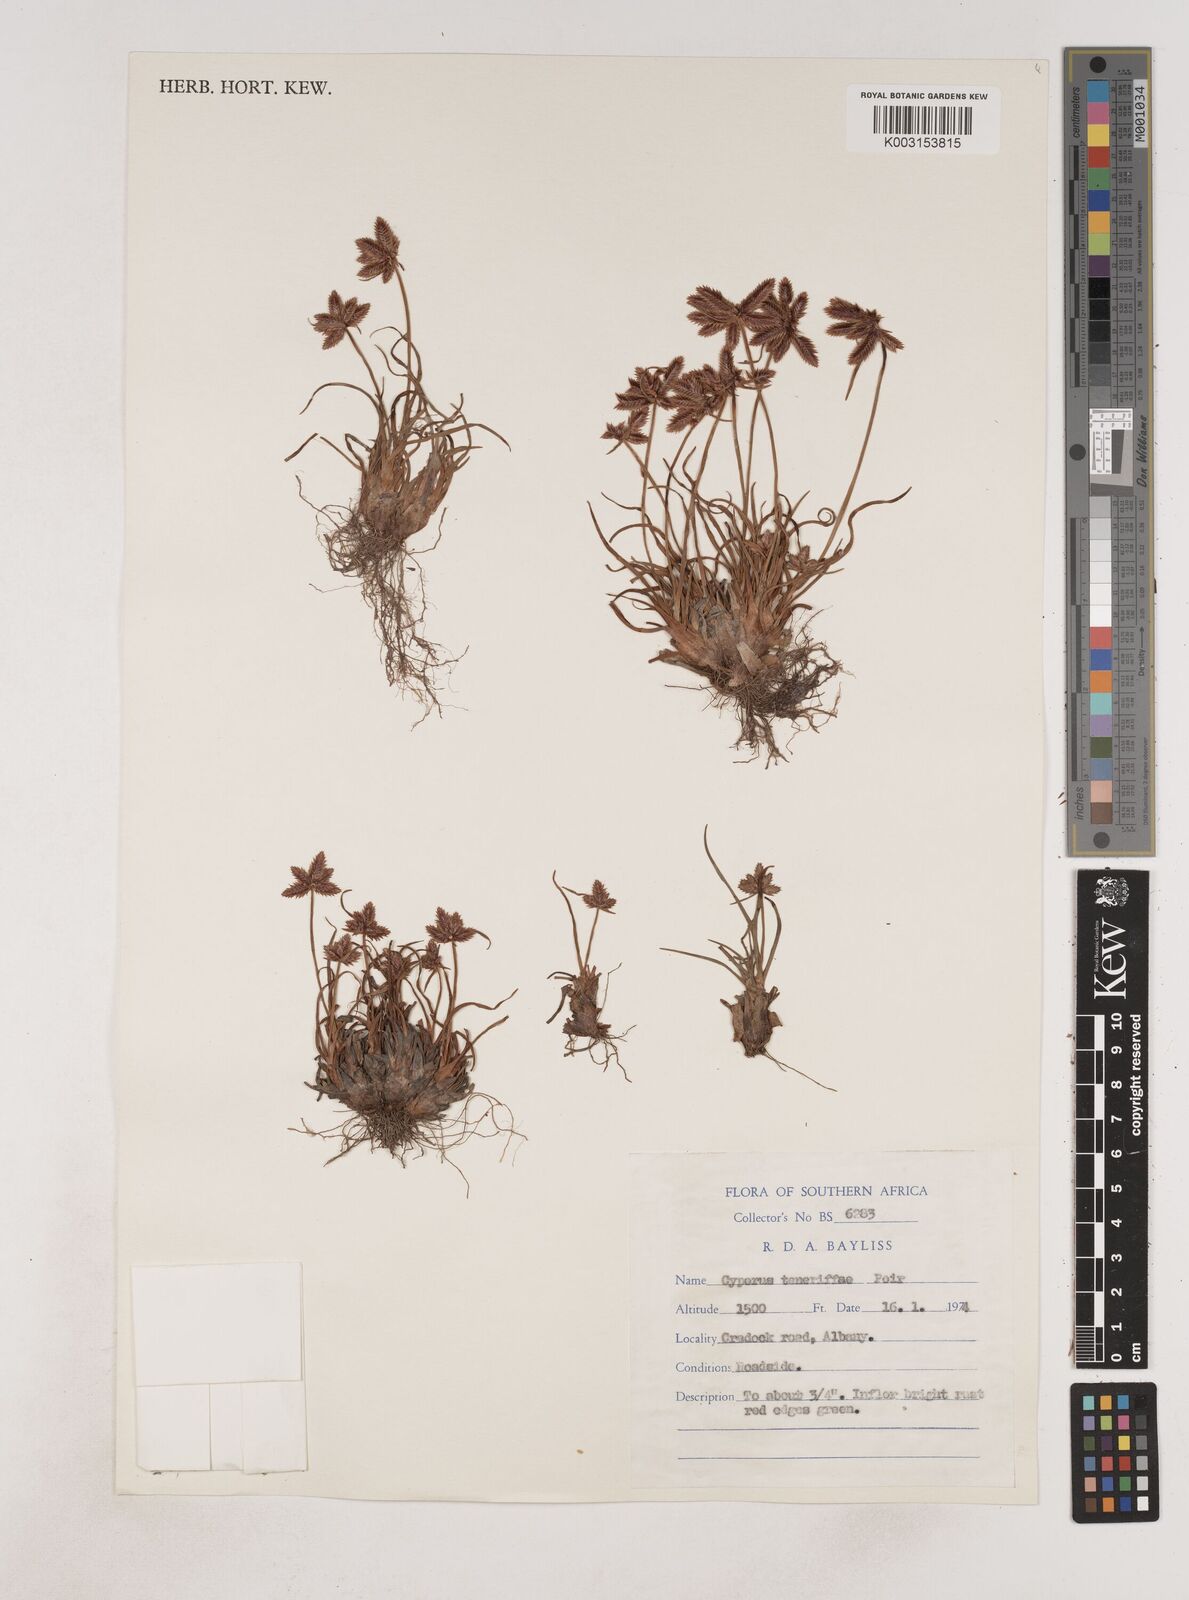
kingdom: Plantae
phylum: Tracheophyta
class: Liliopsida
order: Poales
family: Cyperaceae
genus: Cyperus
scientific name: Cyperus rubicundus
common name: Coco-grass
